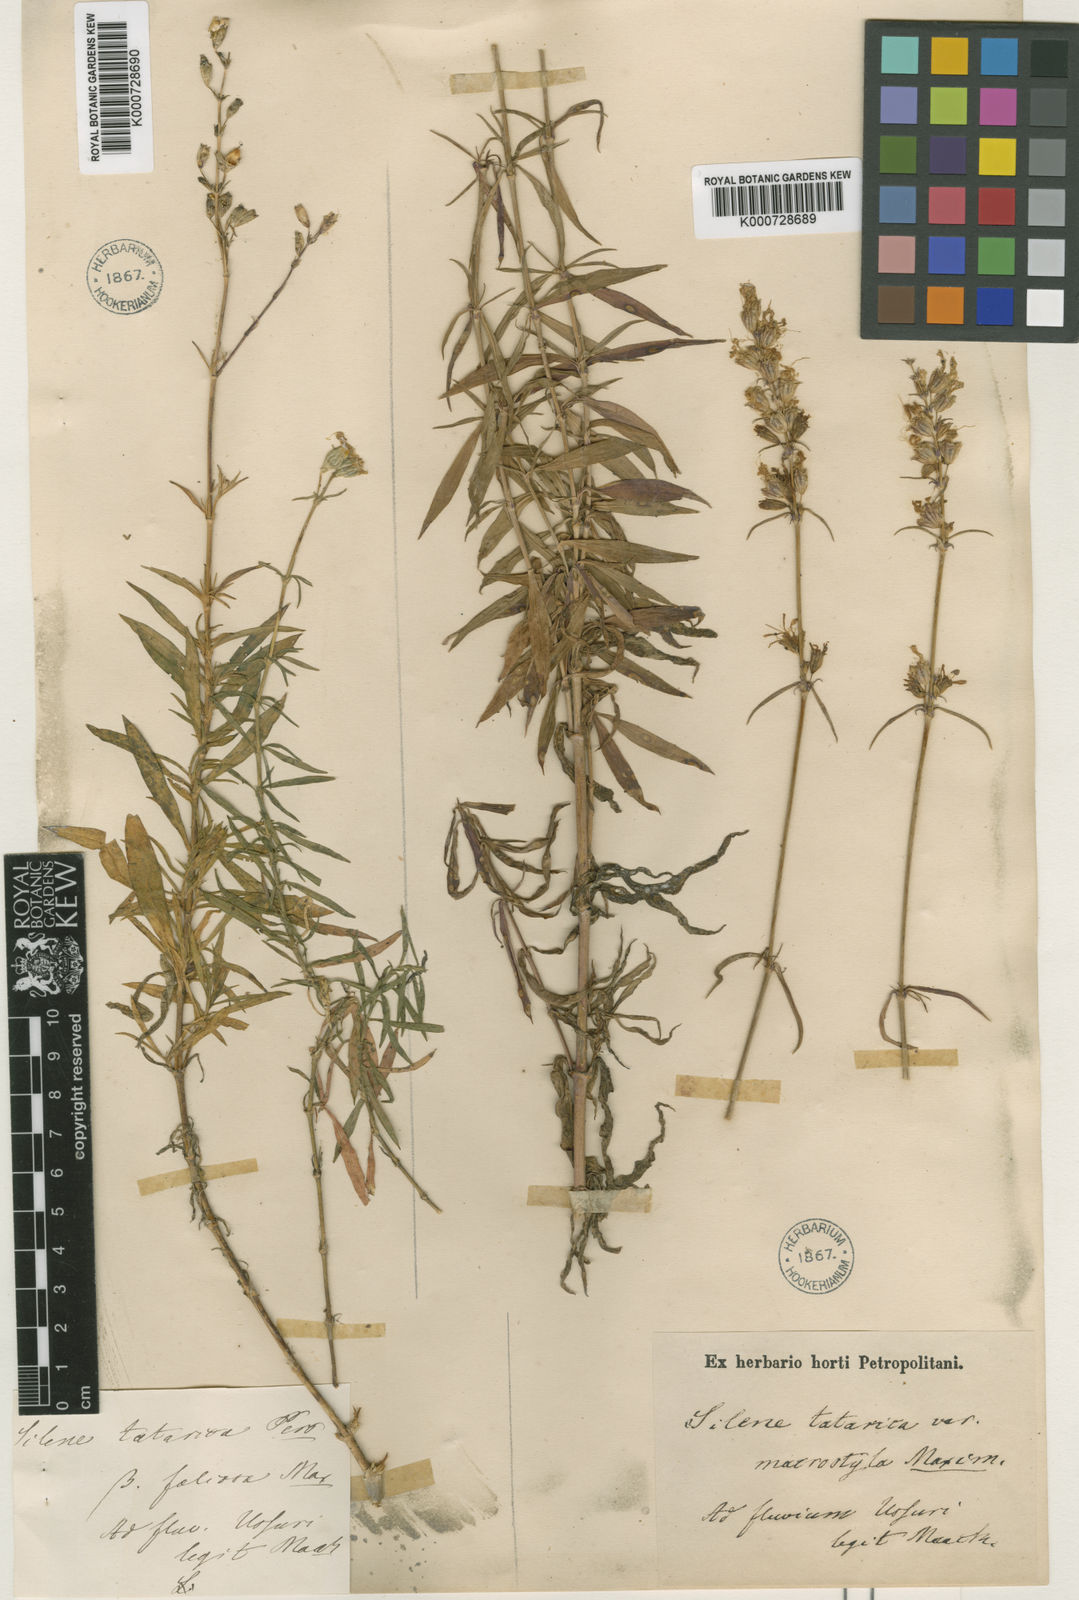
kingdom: Plantae
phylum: Tracheophyta
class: Magnoliopsida
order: Caryophyllales
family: Caryophyllaceae
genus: Silene
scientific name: Silene foliosa
